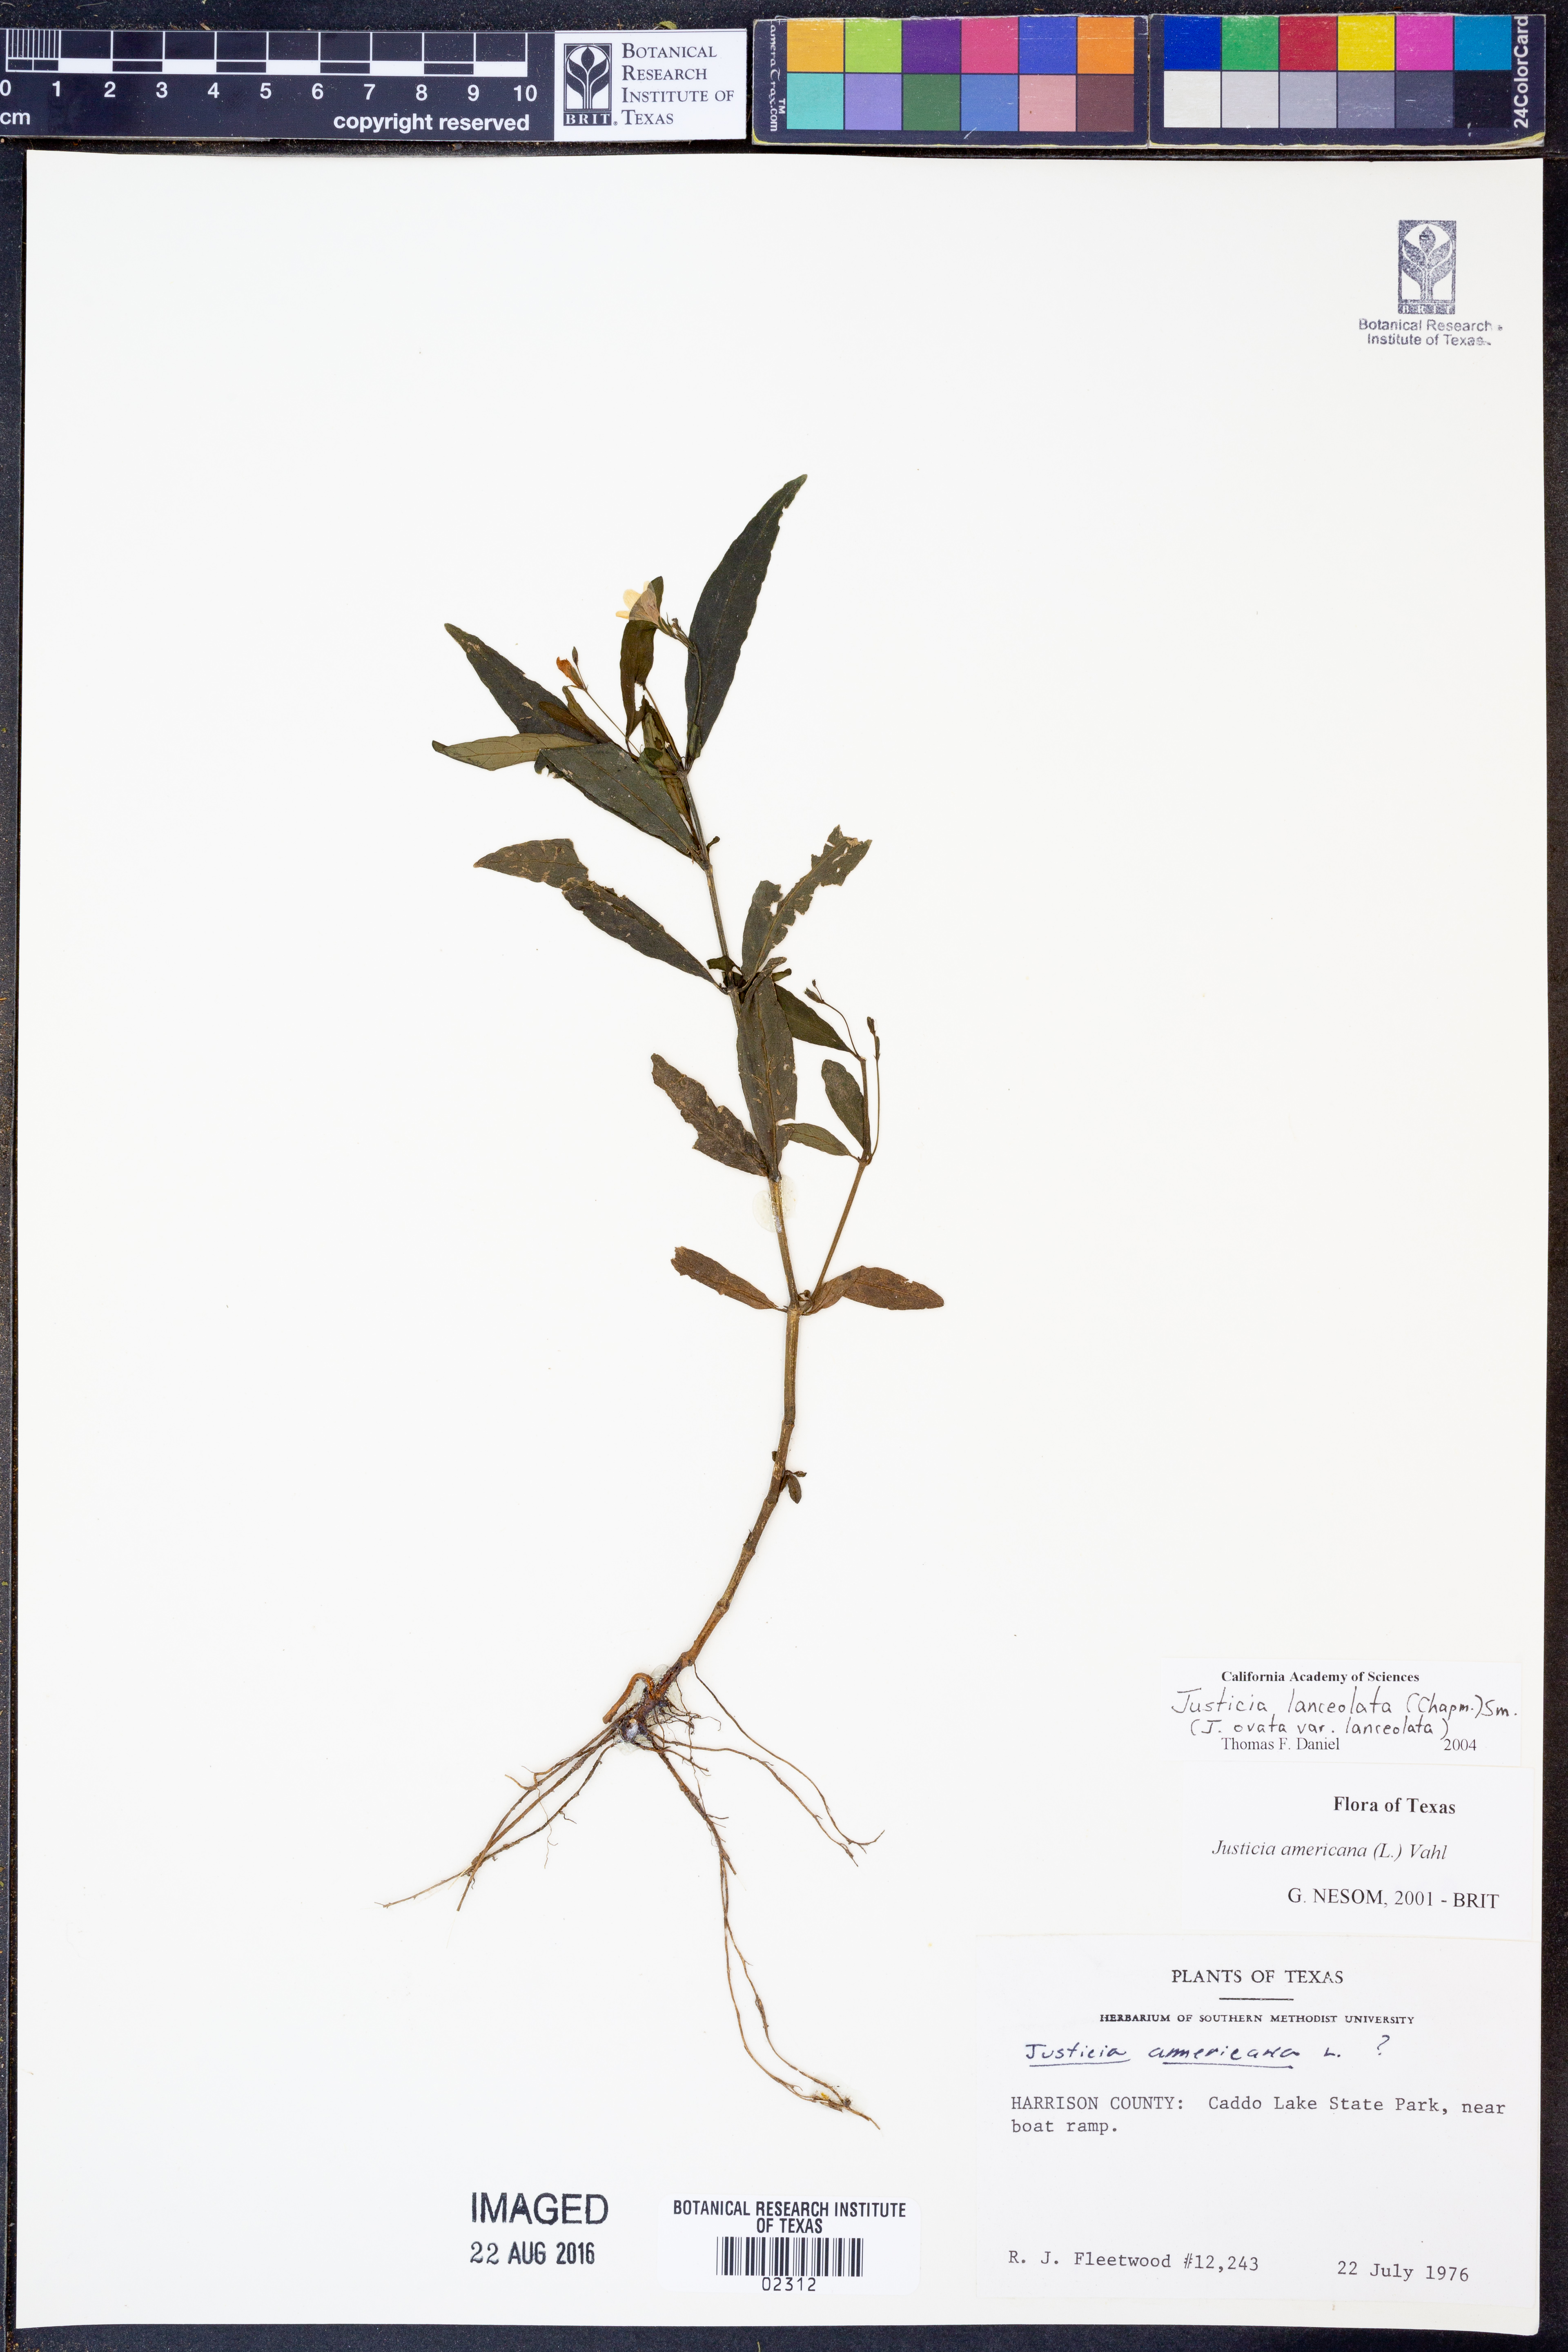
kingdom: Plantae
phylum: Tracheophyta
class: Magnoliopsida
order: Lamiales
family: Acanthaceae
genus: Justicia
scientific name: Justicia lanceolata
